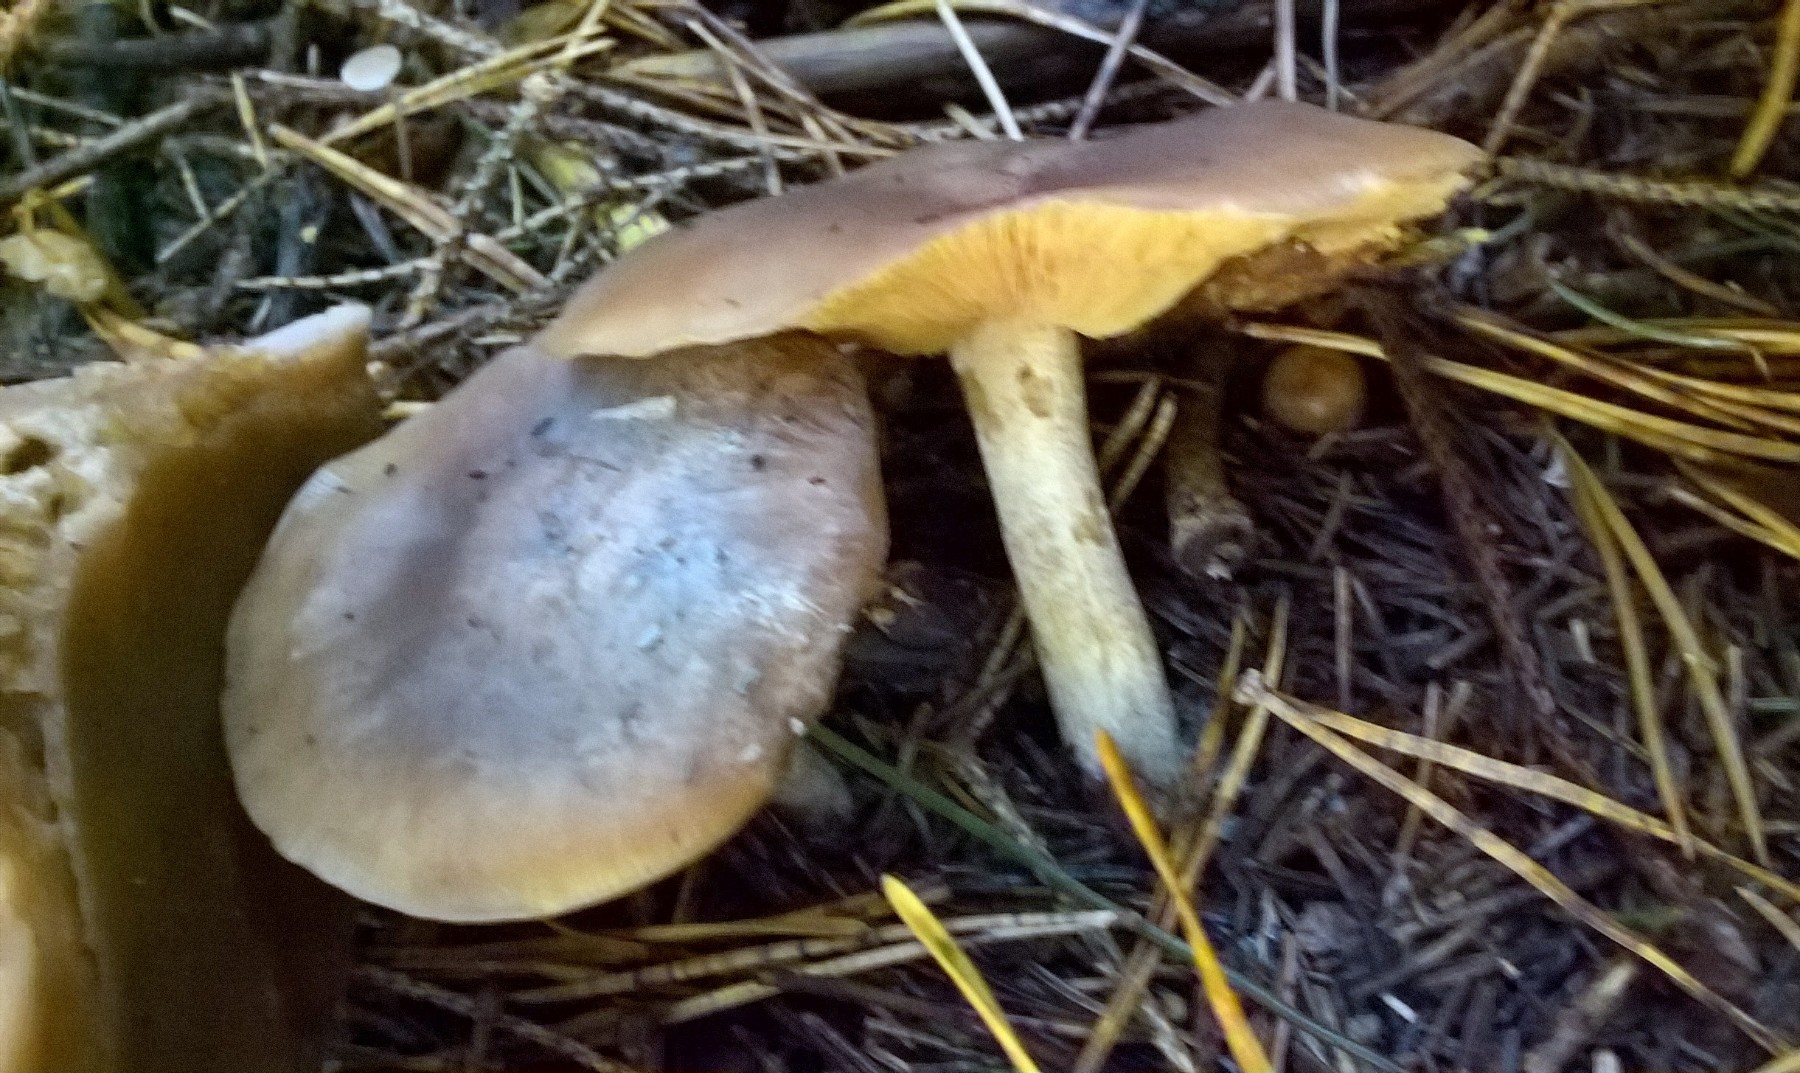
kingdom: Fungi
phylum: Basidiomycota
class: Agaricomycetes
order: Agaricales
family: Tricholomataceae
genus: Lepista
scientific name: Lepista
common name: hekseringshat
